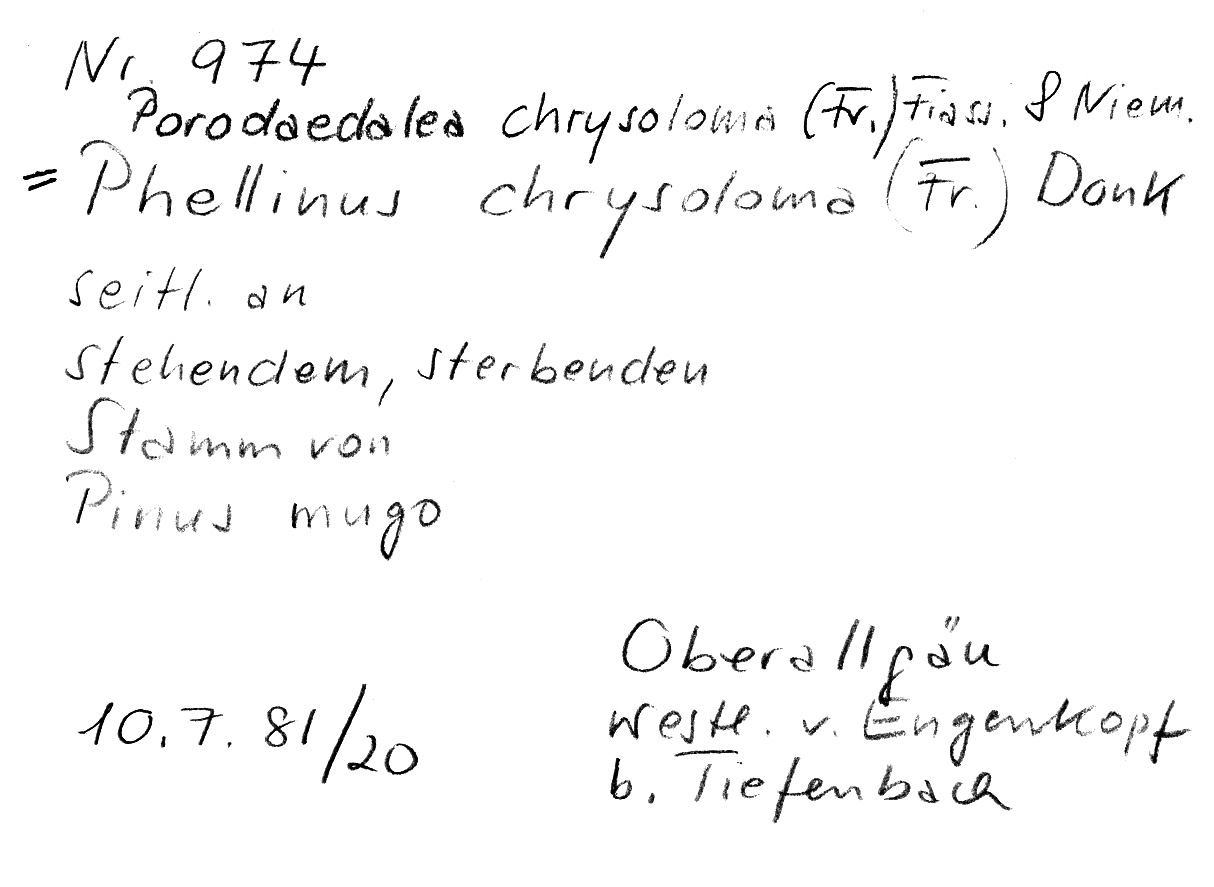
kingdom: Fungi
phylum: Basidiomycota
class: Agaricomycetes
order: Hymenochaetales
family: Hymenochaetaceae
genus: Phellinus
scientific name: Phellinus chrysoloma
